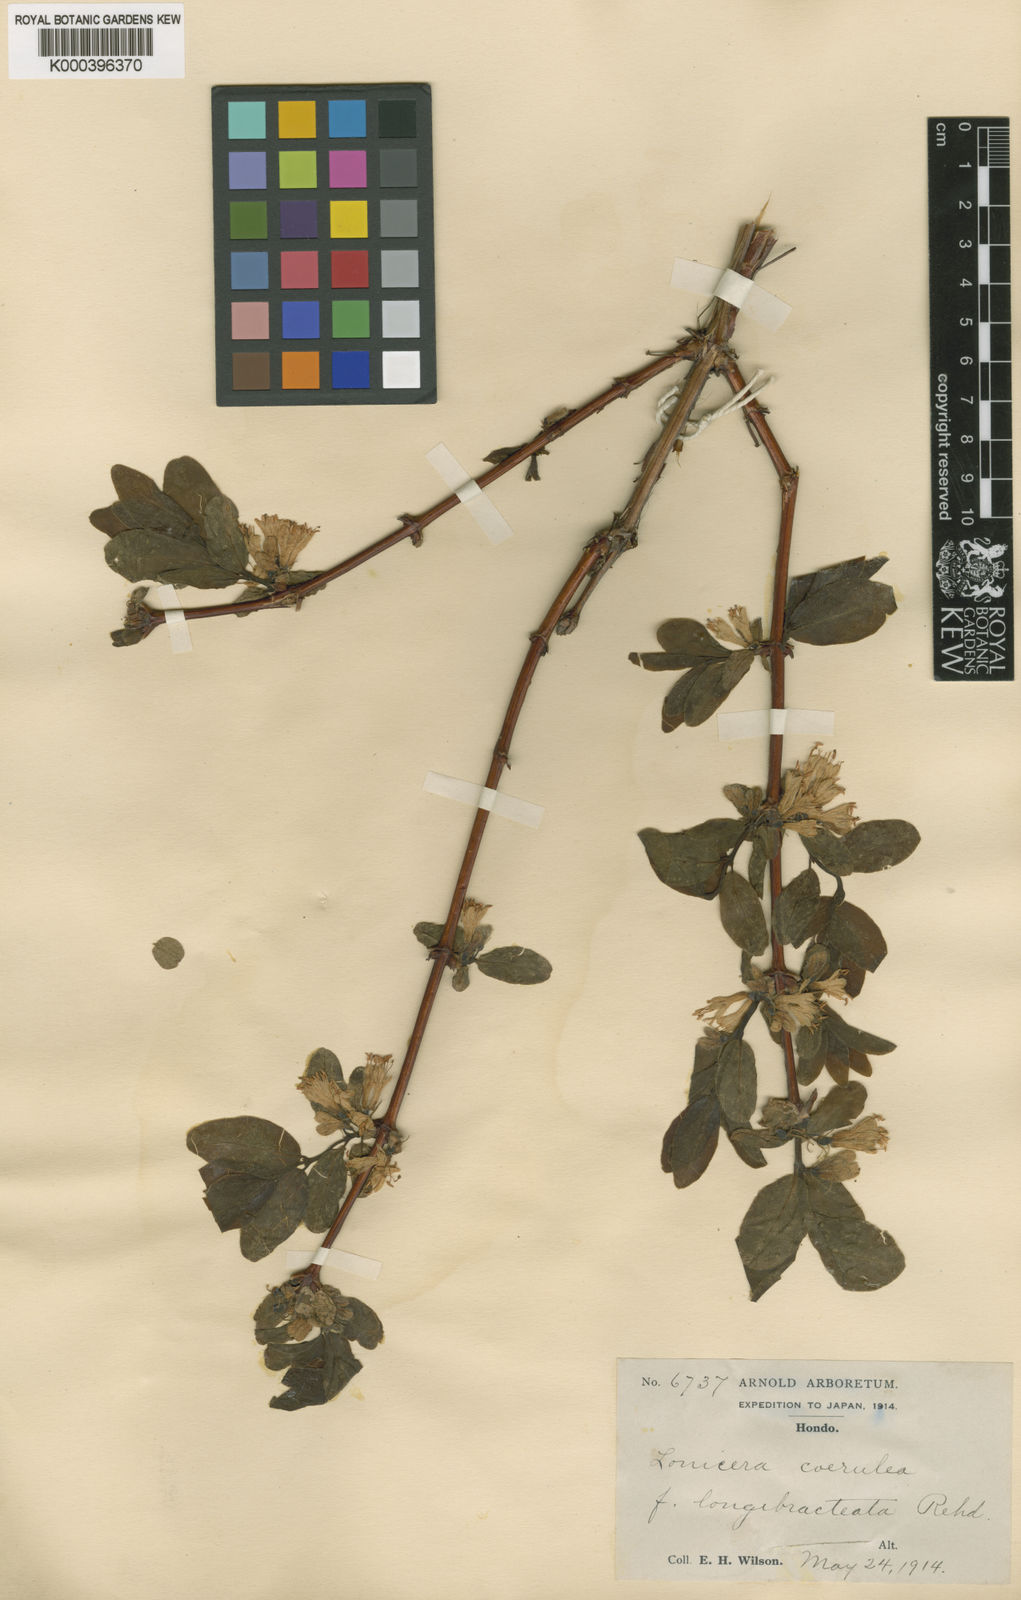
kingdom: Plantae
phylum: Tracheophyta
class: Magnoliopsida
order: Dipsacales
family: Caprifoliaceae
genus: Lonicera
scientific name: Lonicera
